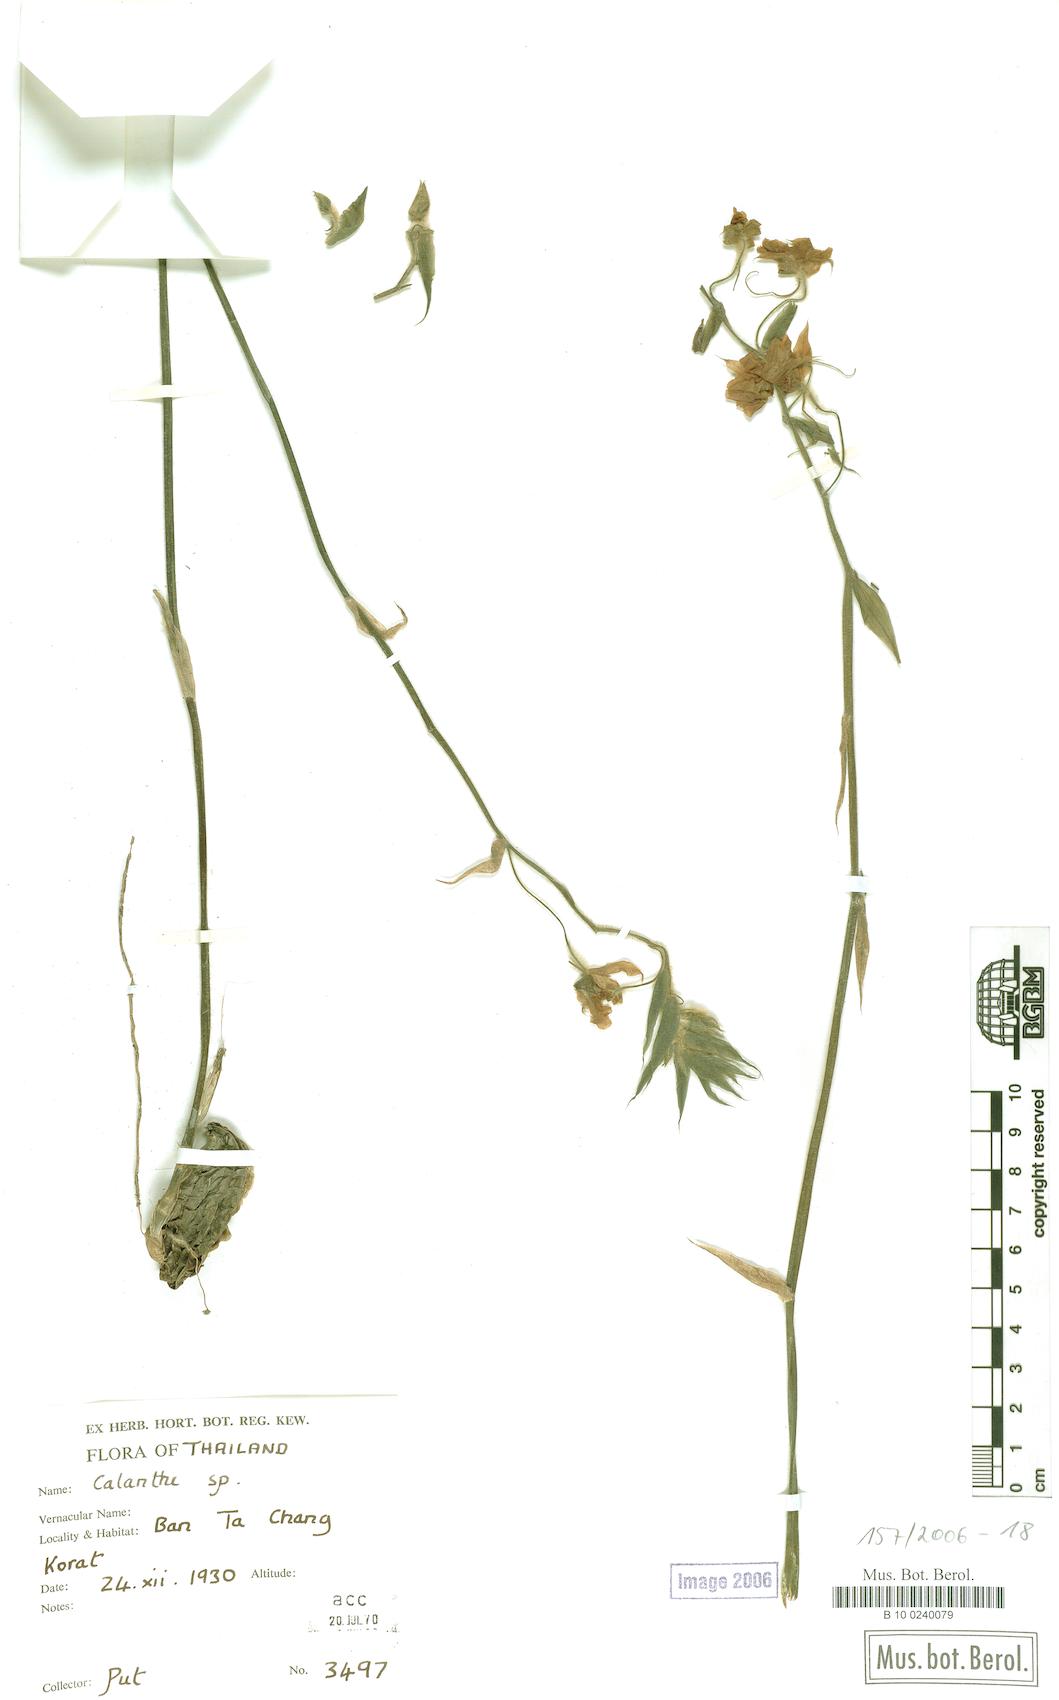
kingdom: Plantae
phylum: Tracheophyta
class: Liliopsida
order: Asparagales
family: Orchidaceae
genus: Calanthe
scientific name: Calanthe
